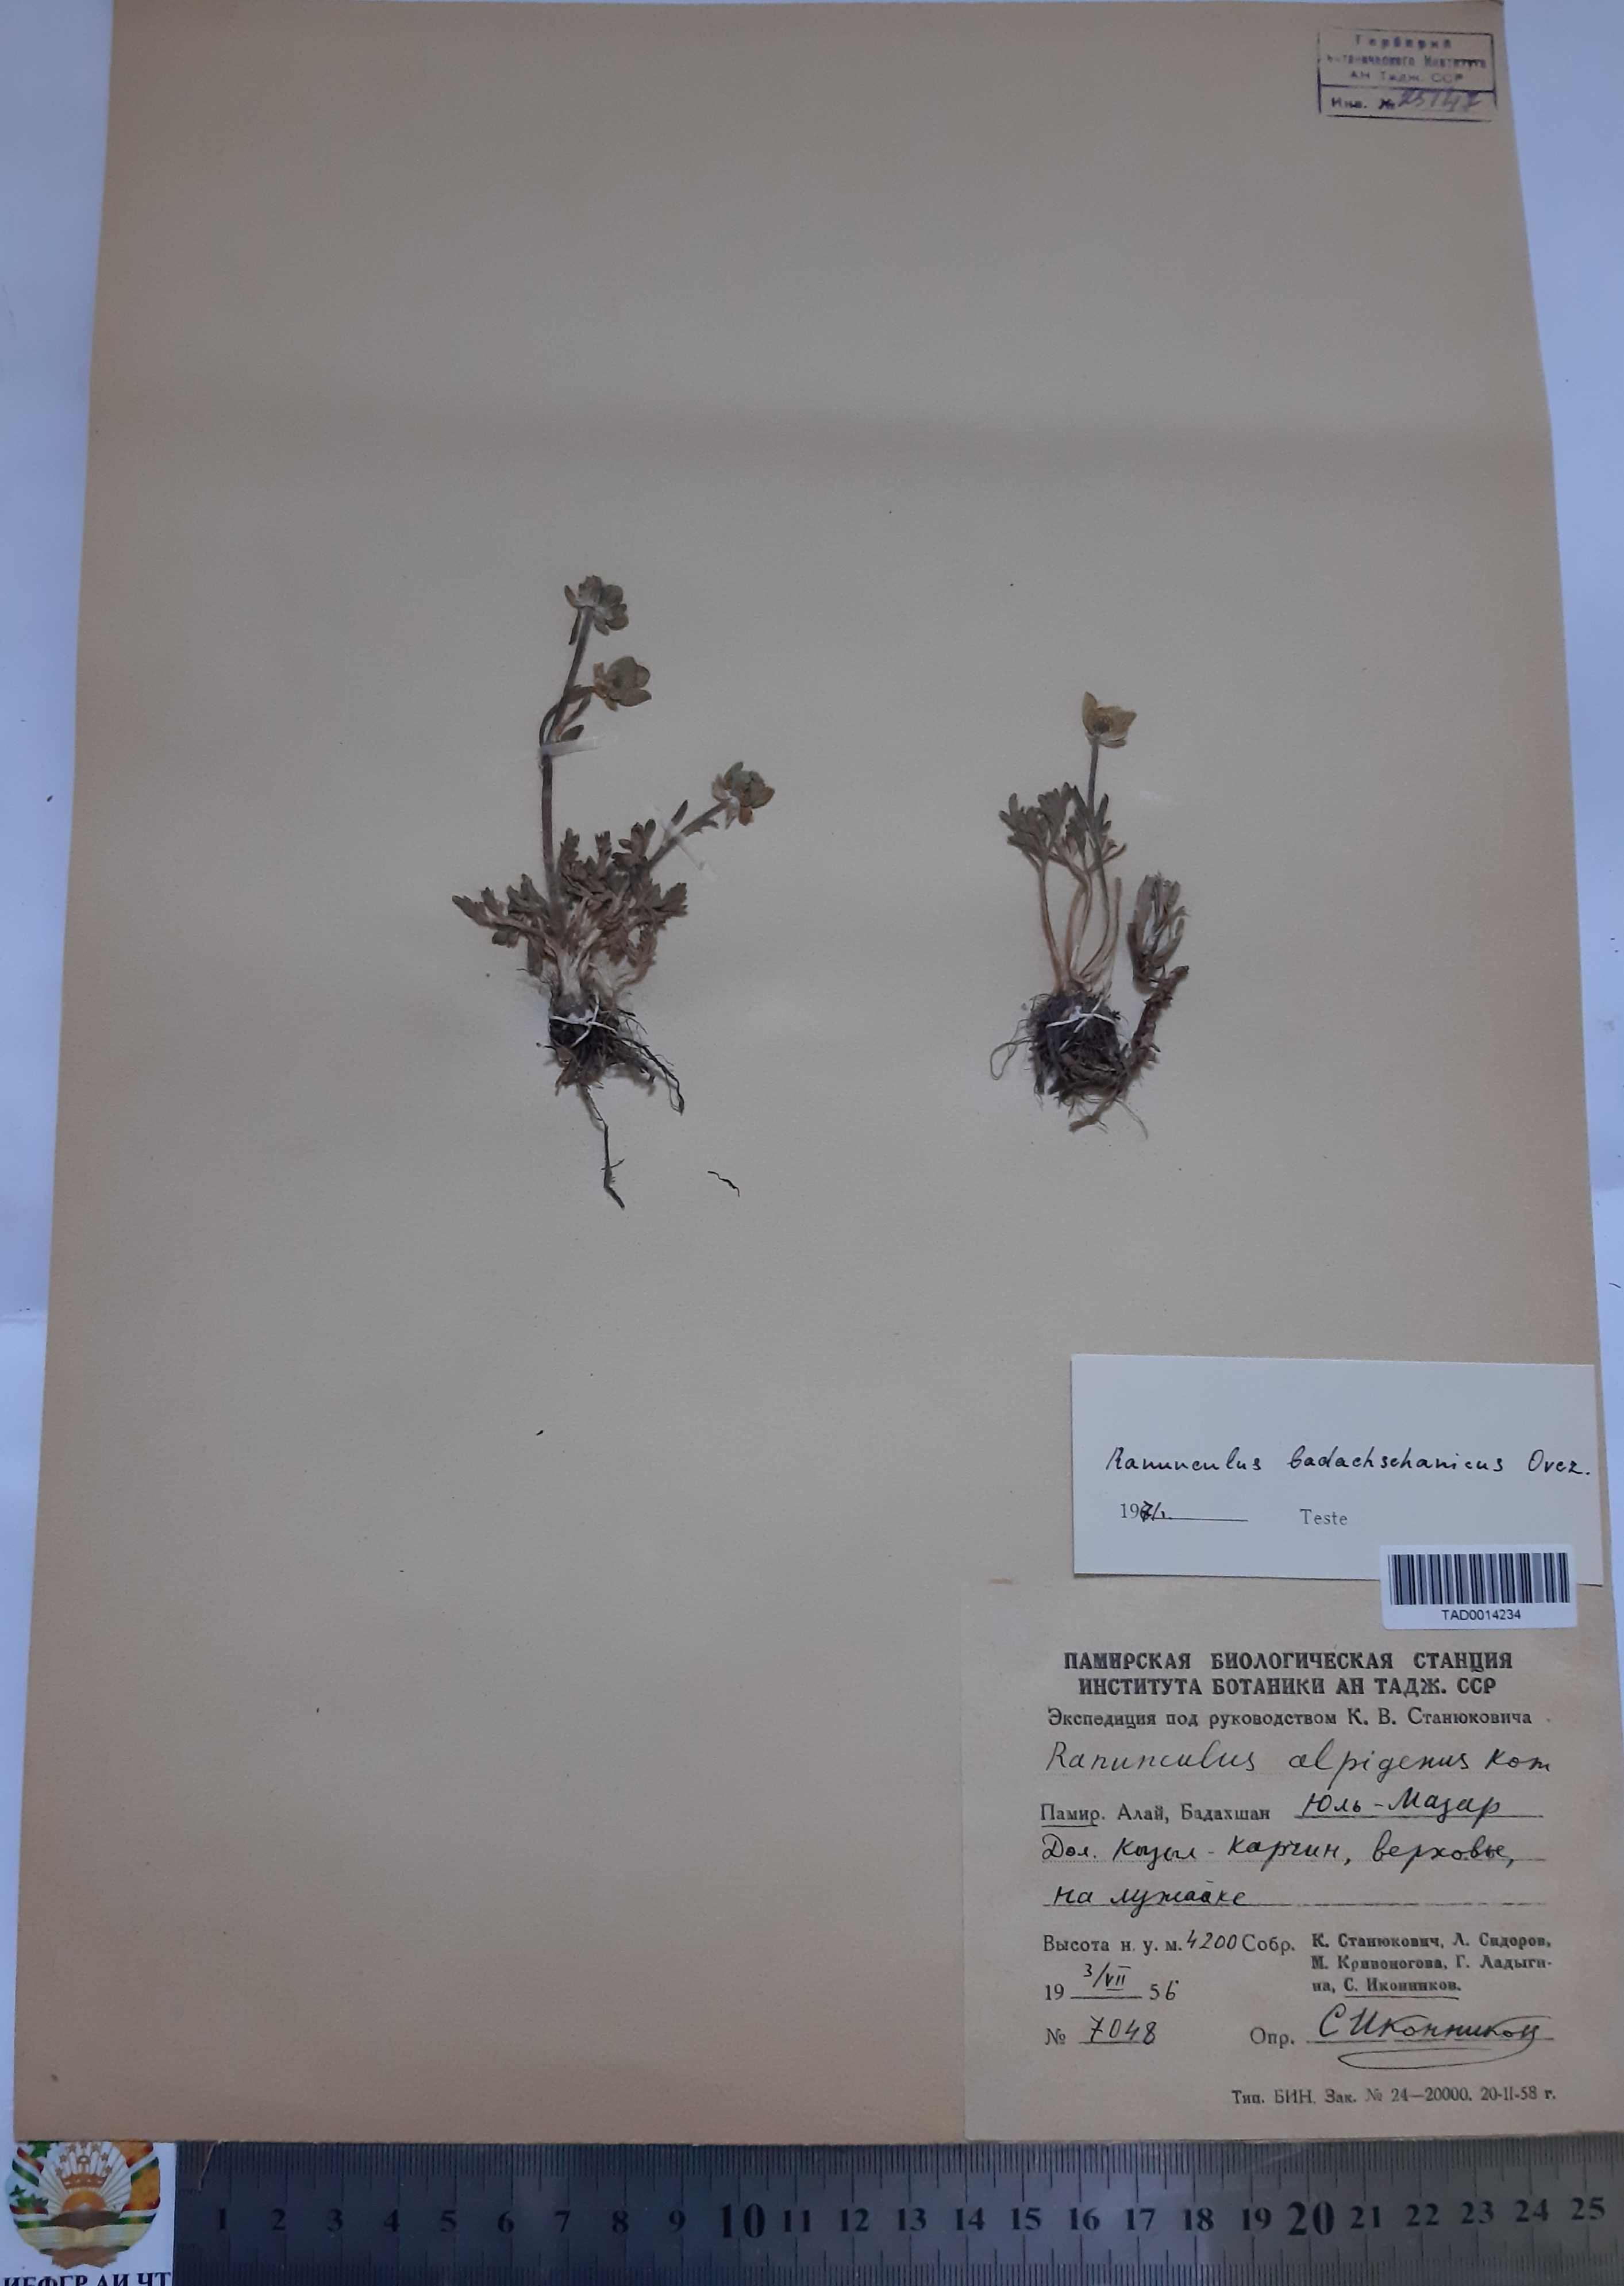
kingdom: Plantae
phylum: Tracheophyta
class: Magnoliopsida
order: Ranunculales
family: Ranunculaceae
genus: Ranunculus
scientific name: Ranunculus badachschanicus
